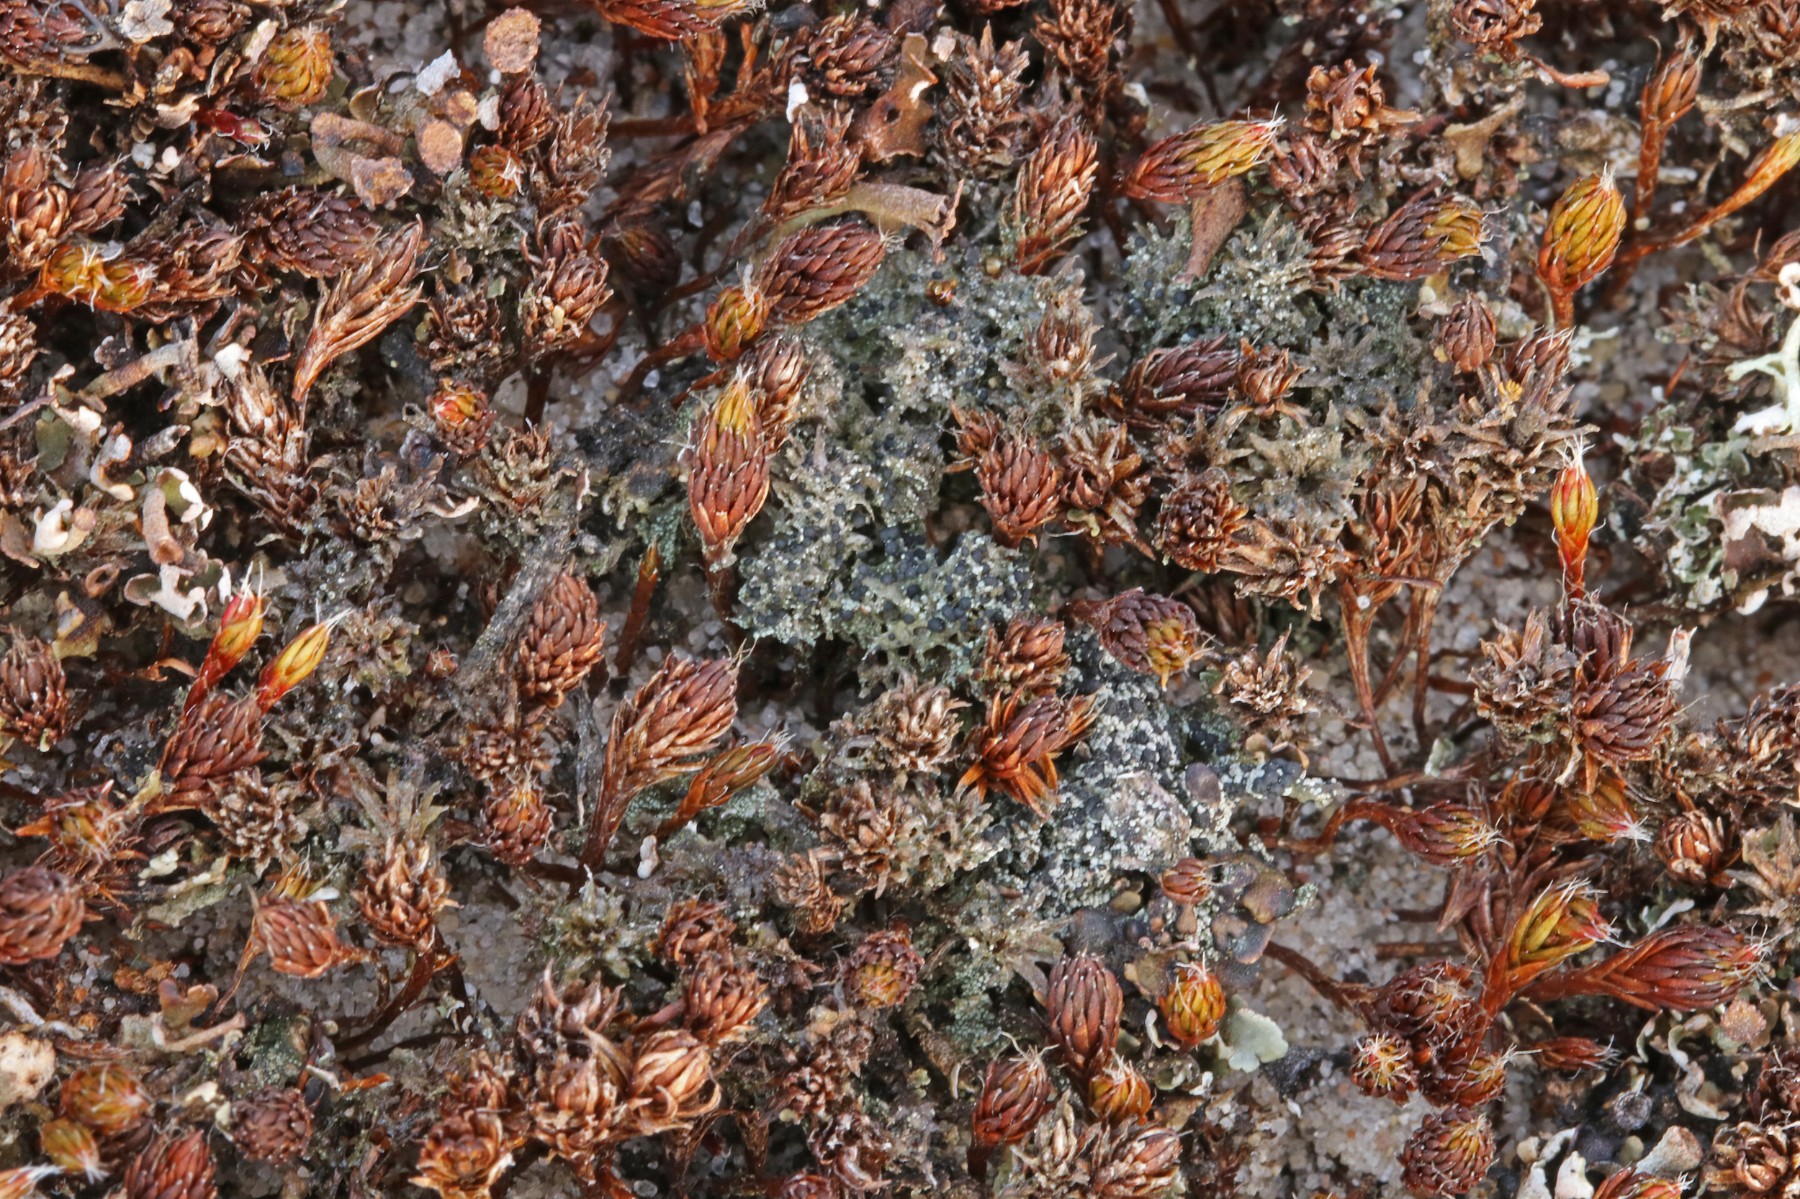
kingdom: Fungi
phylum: Ascomycota
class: Lecanoromycetes
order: Lecanorales
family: Byssolomataceae
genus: Micarea
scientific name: Micarea lignaria
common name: tørve-knaplav
